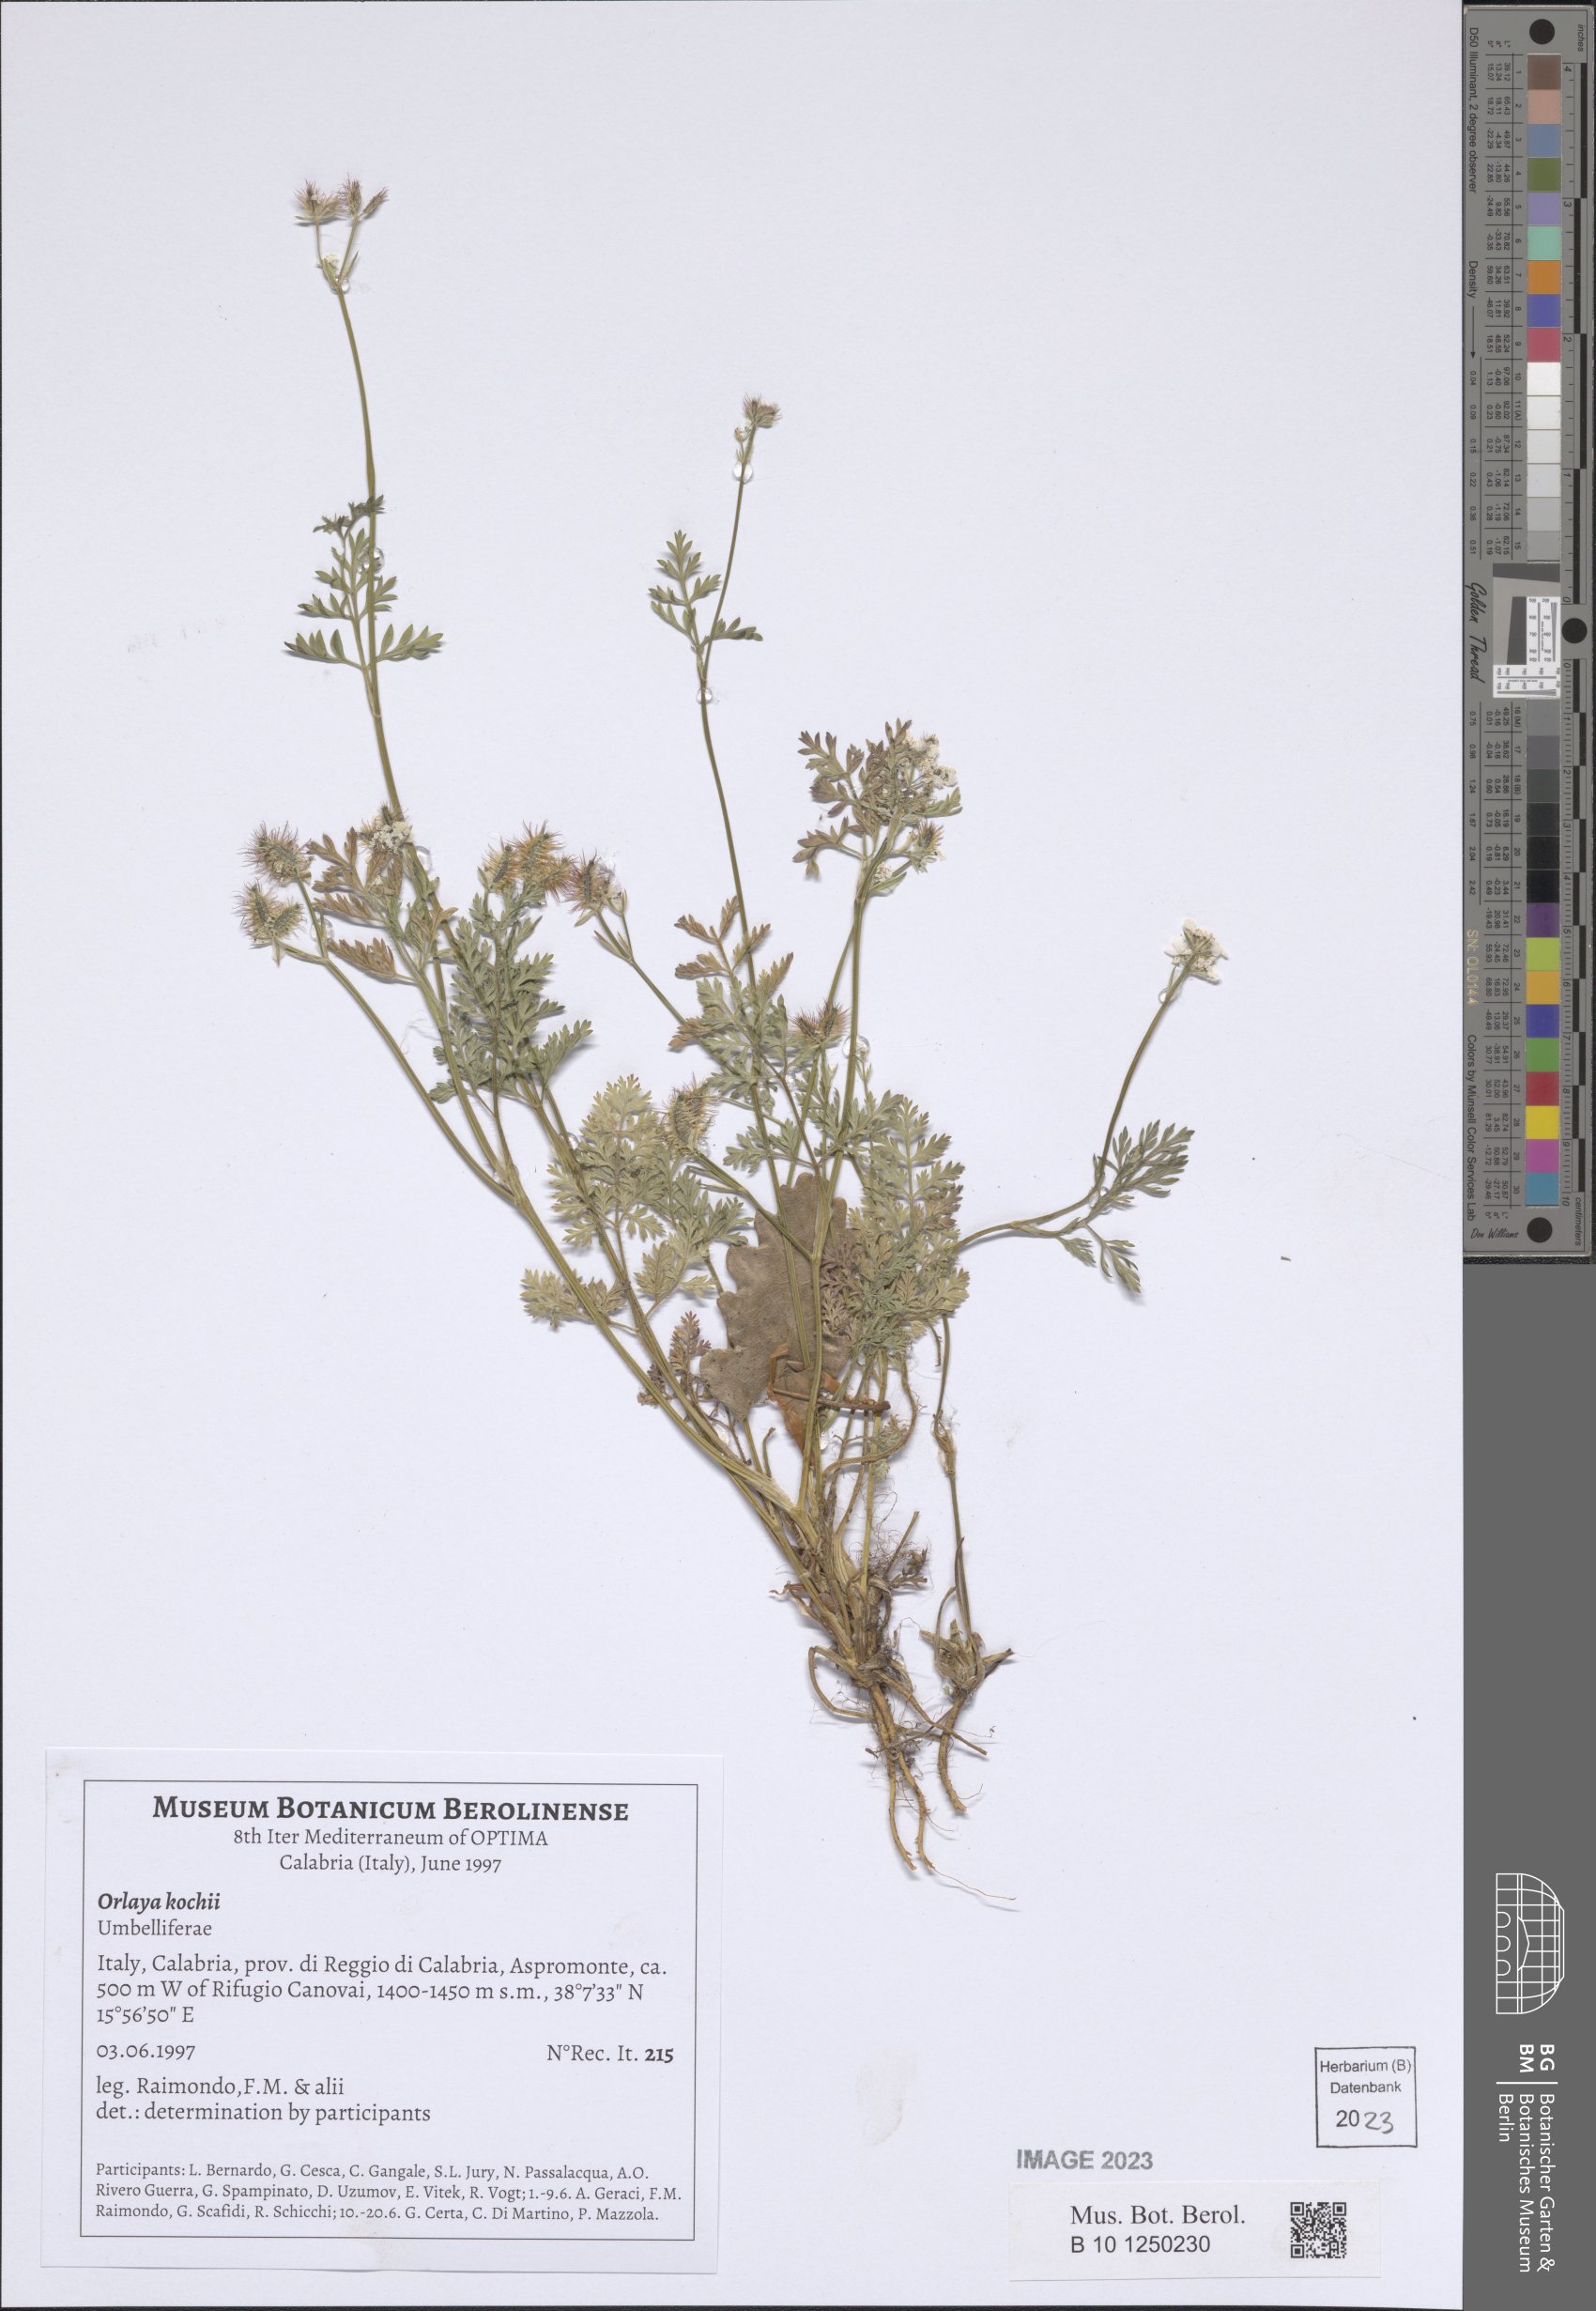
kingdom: Plantae
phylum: Tracheophyta
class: Magnoliopsida
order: Apiales
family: Apiaceae
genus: Orlaya
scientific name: Orlaya daucoides
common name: Flat-fruit orlaya
